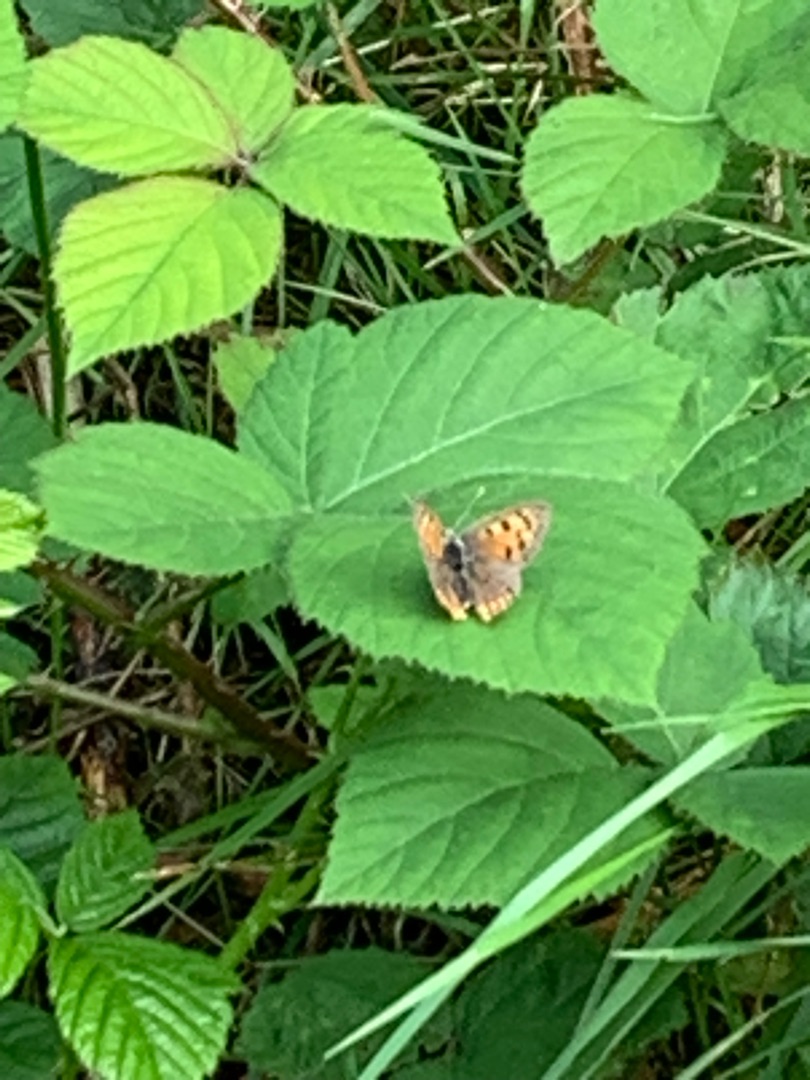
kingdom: Animalia
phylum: Arthropoda
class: Insecta
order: Lepidoptera
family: Lycaenidae
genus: Lycaena
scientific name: Lycaena phlaeas
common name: Lille ildfugl
